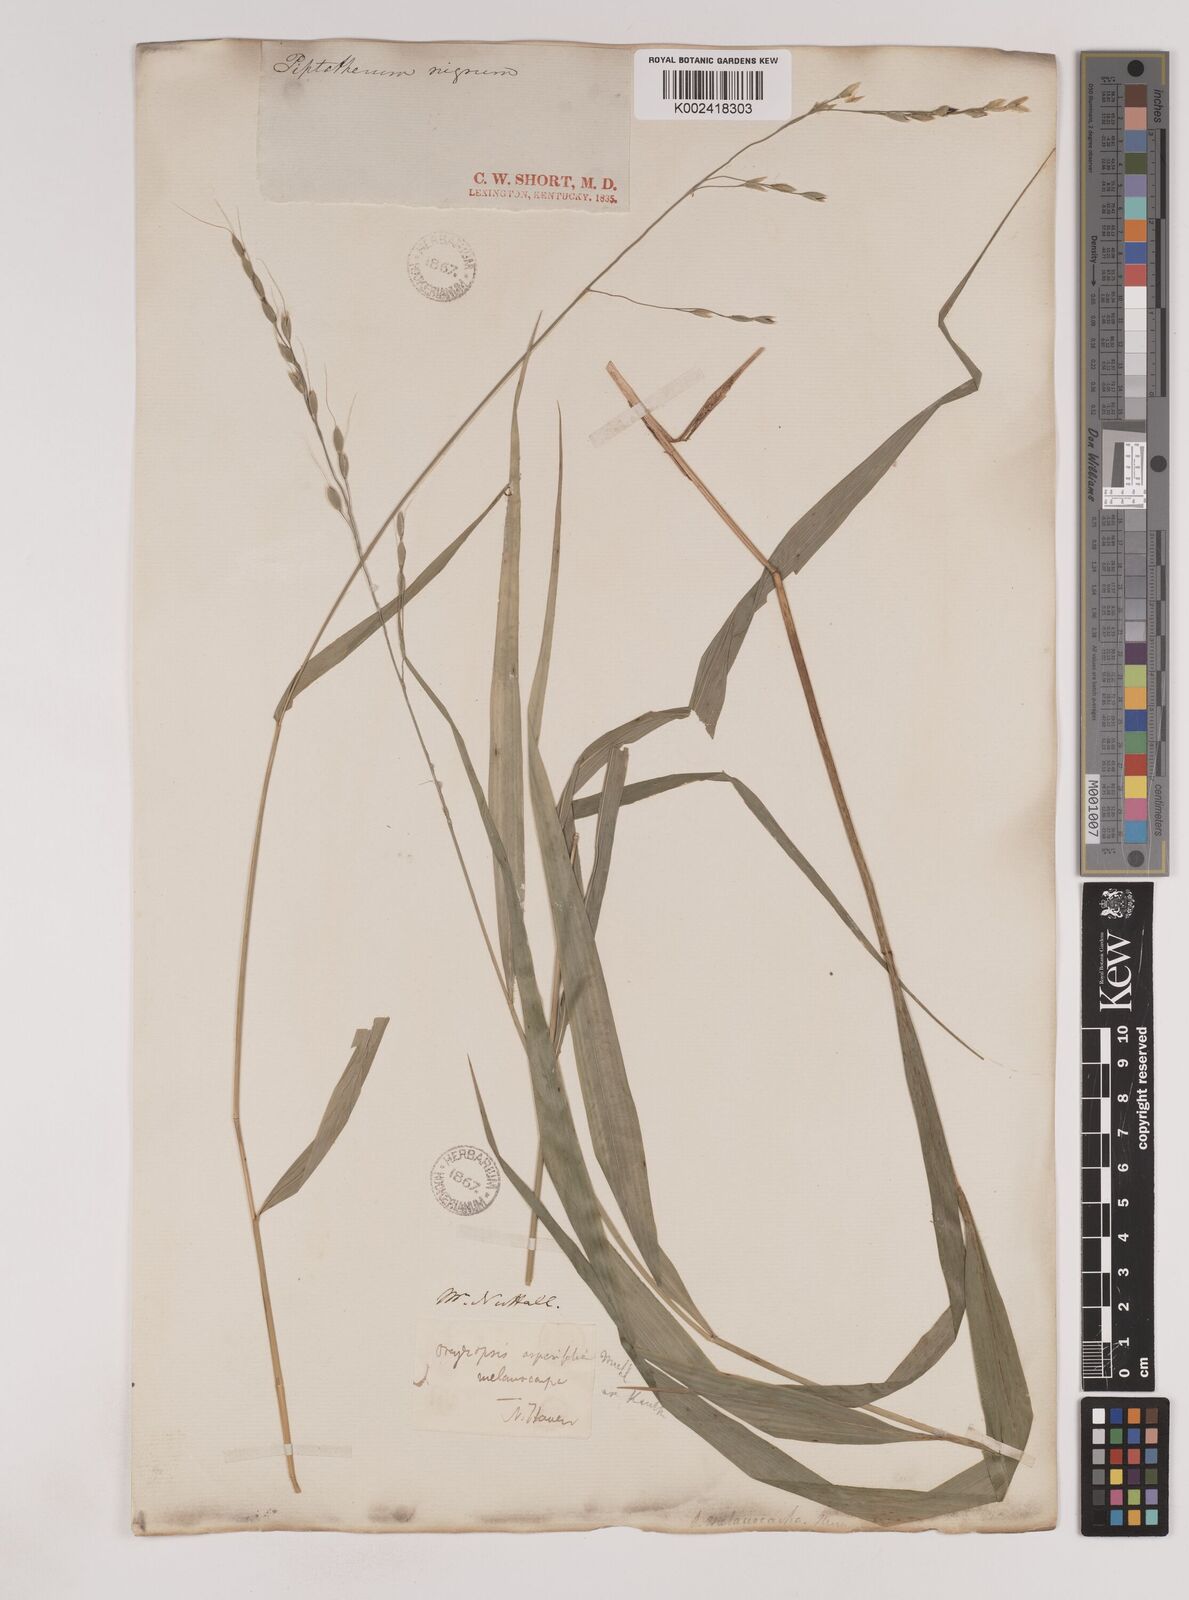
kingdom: Plantae
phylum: Tracheophyta
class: Liliopsida
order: Poales
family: Poaceae
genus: Patis
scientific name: Patis racemosa
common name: Black-fruited mountain rice
